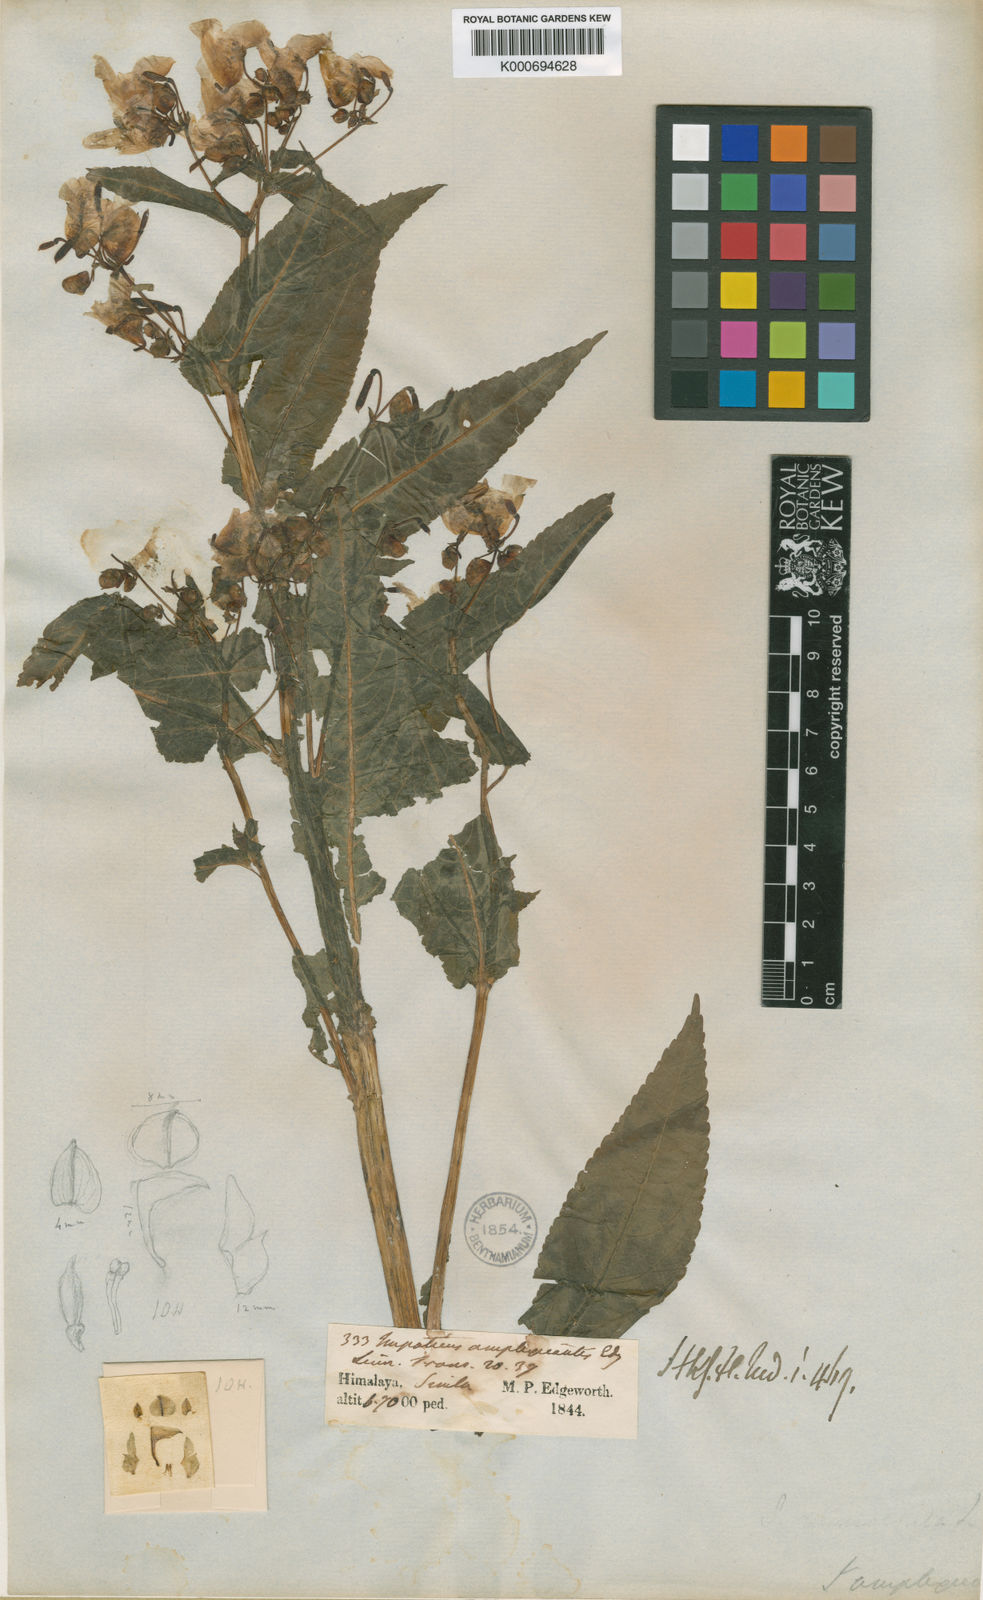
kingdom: Plantae
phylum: Tracheophyta
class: Magnoliopsida
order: Ericales
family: Balsaminaceae
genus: Impatiens
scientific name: Impatiens amplexicaulis
